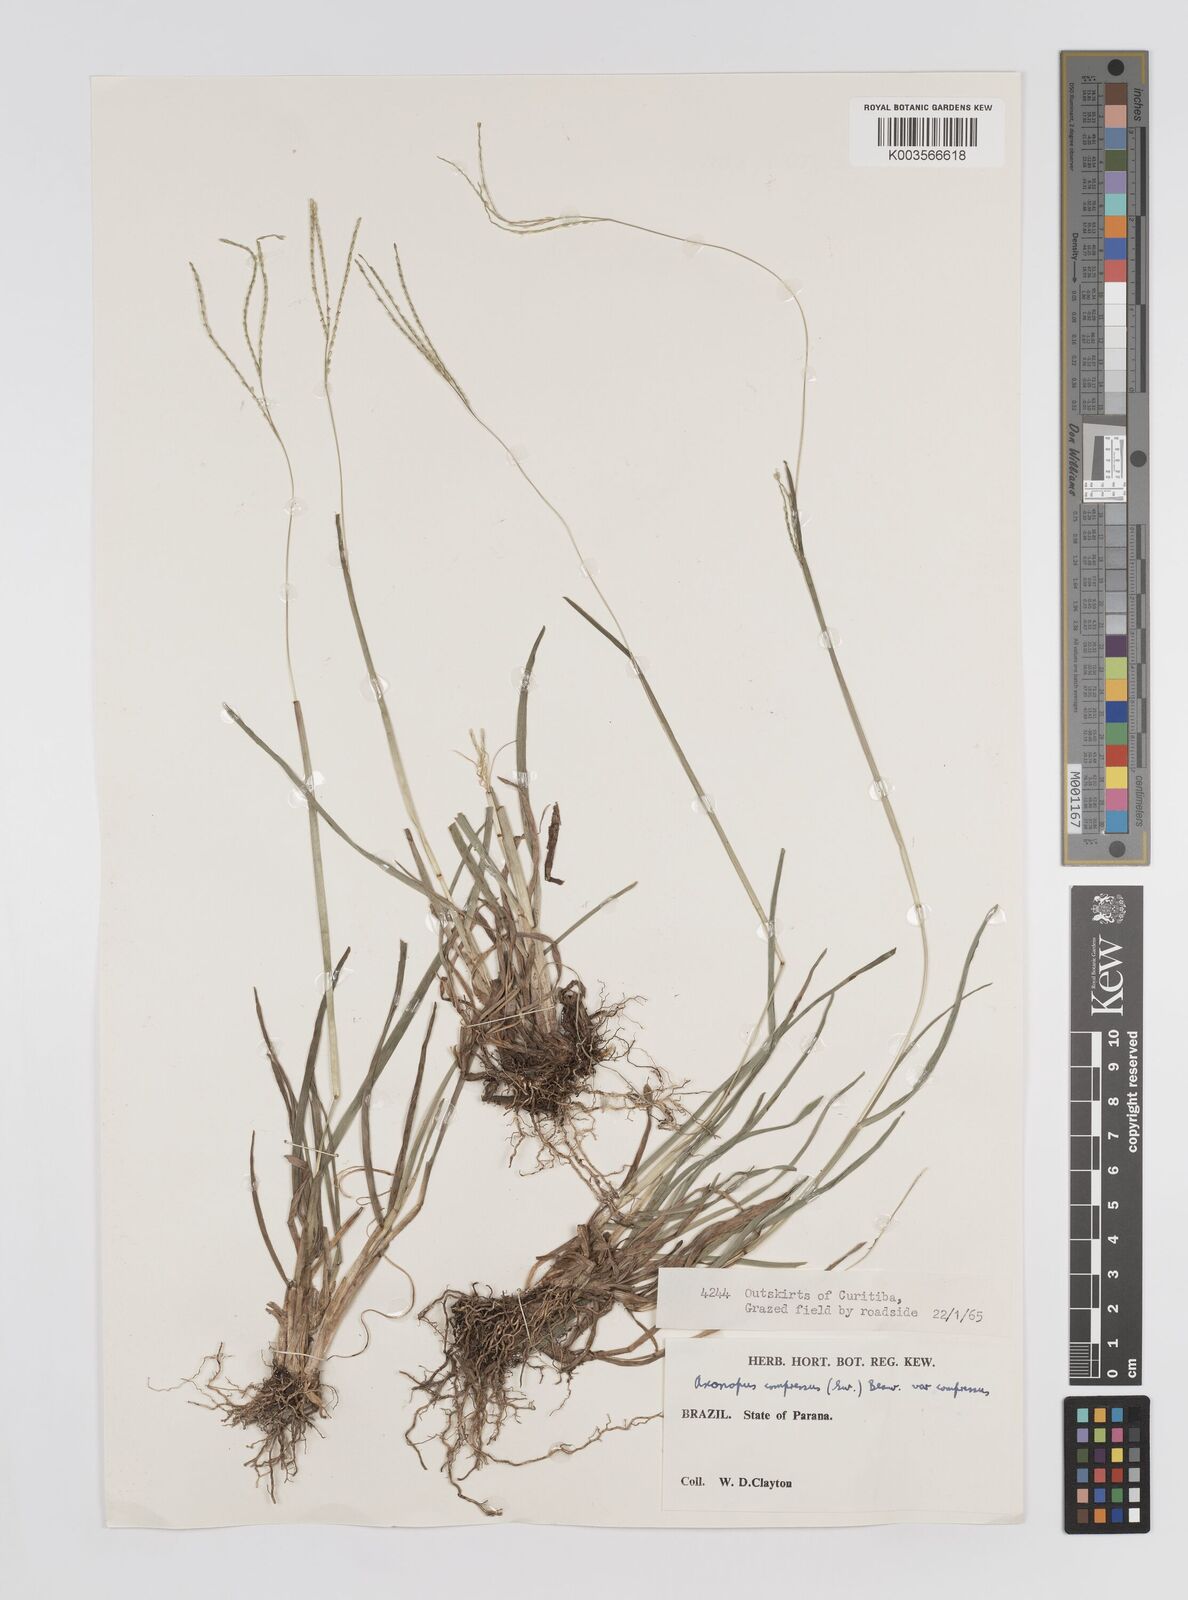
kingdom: Plantae
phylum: Tracheophyta
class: Liliopsida
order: Poales
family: Poaceae
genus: Axonopus
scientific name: Axonopus compressus
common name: American carpet grass
